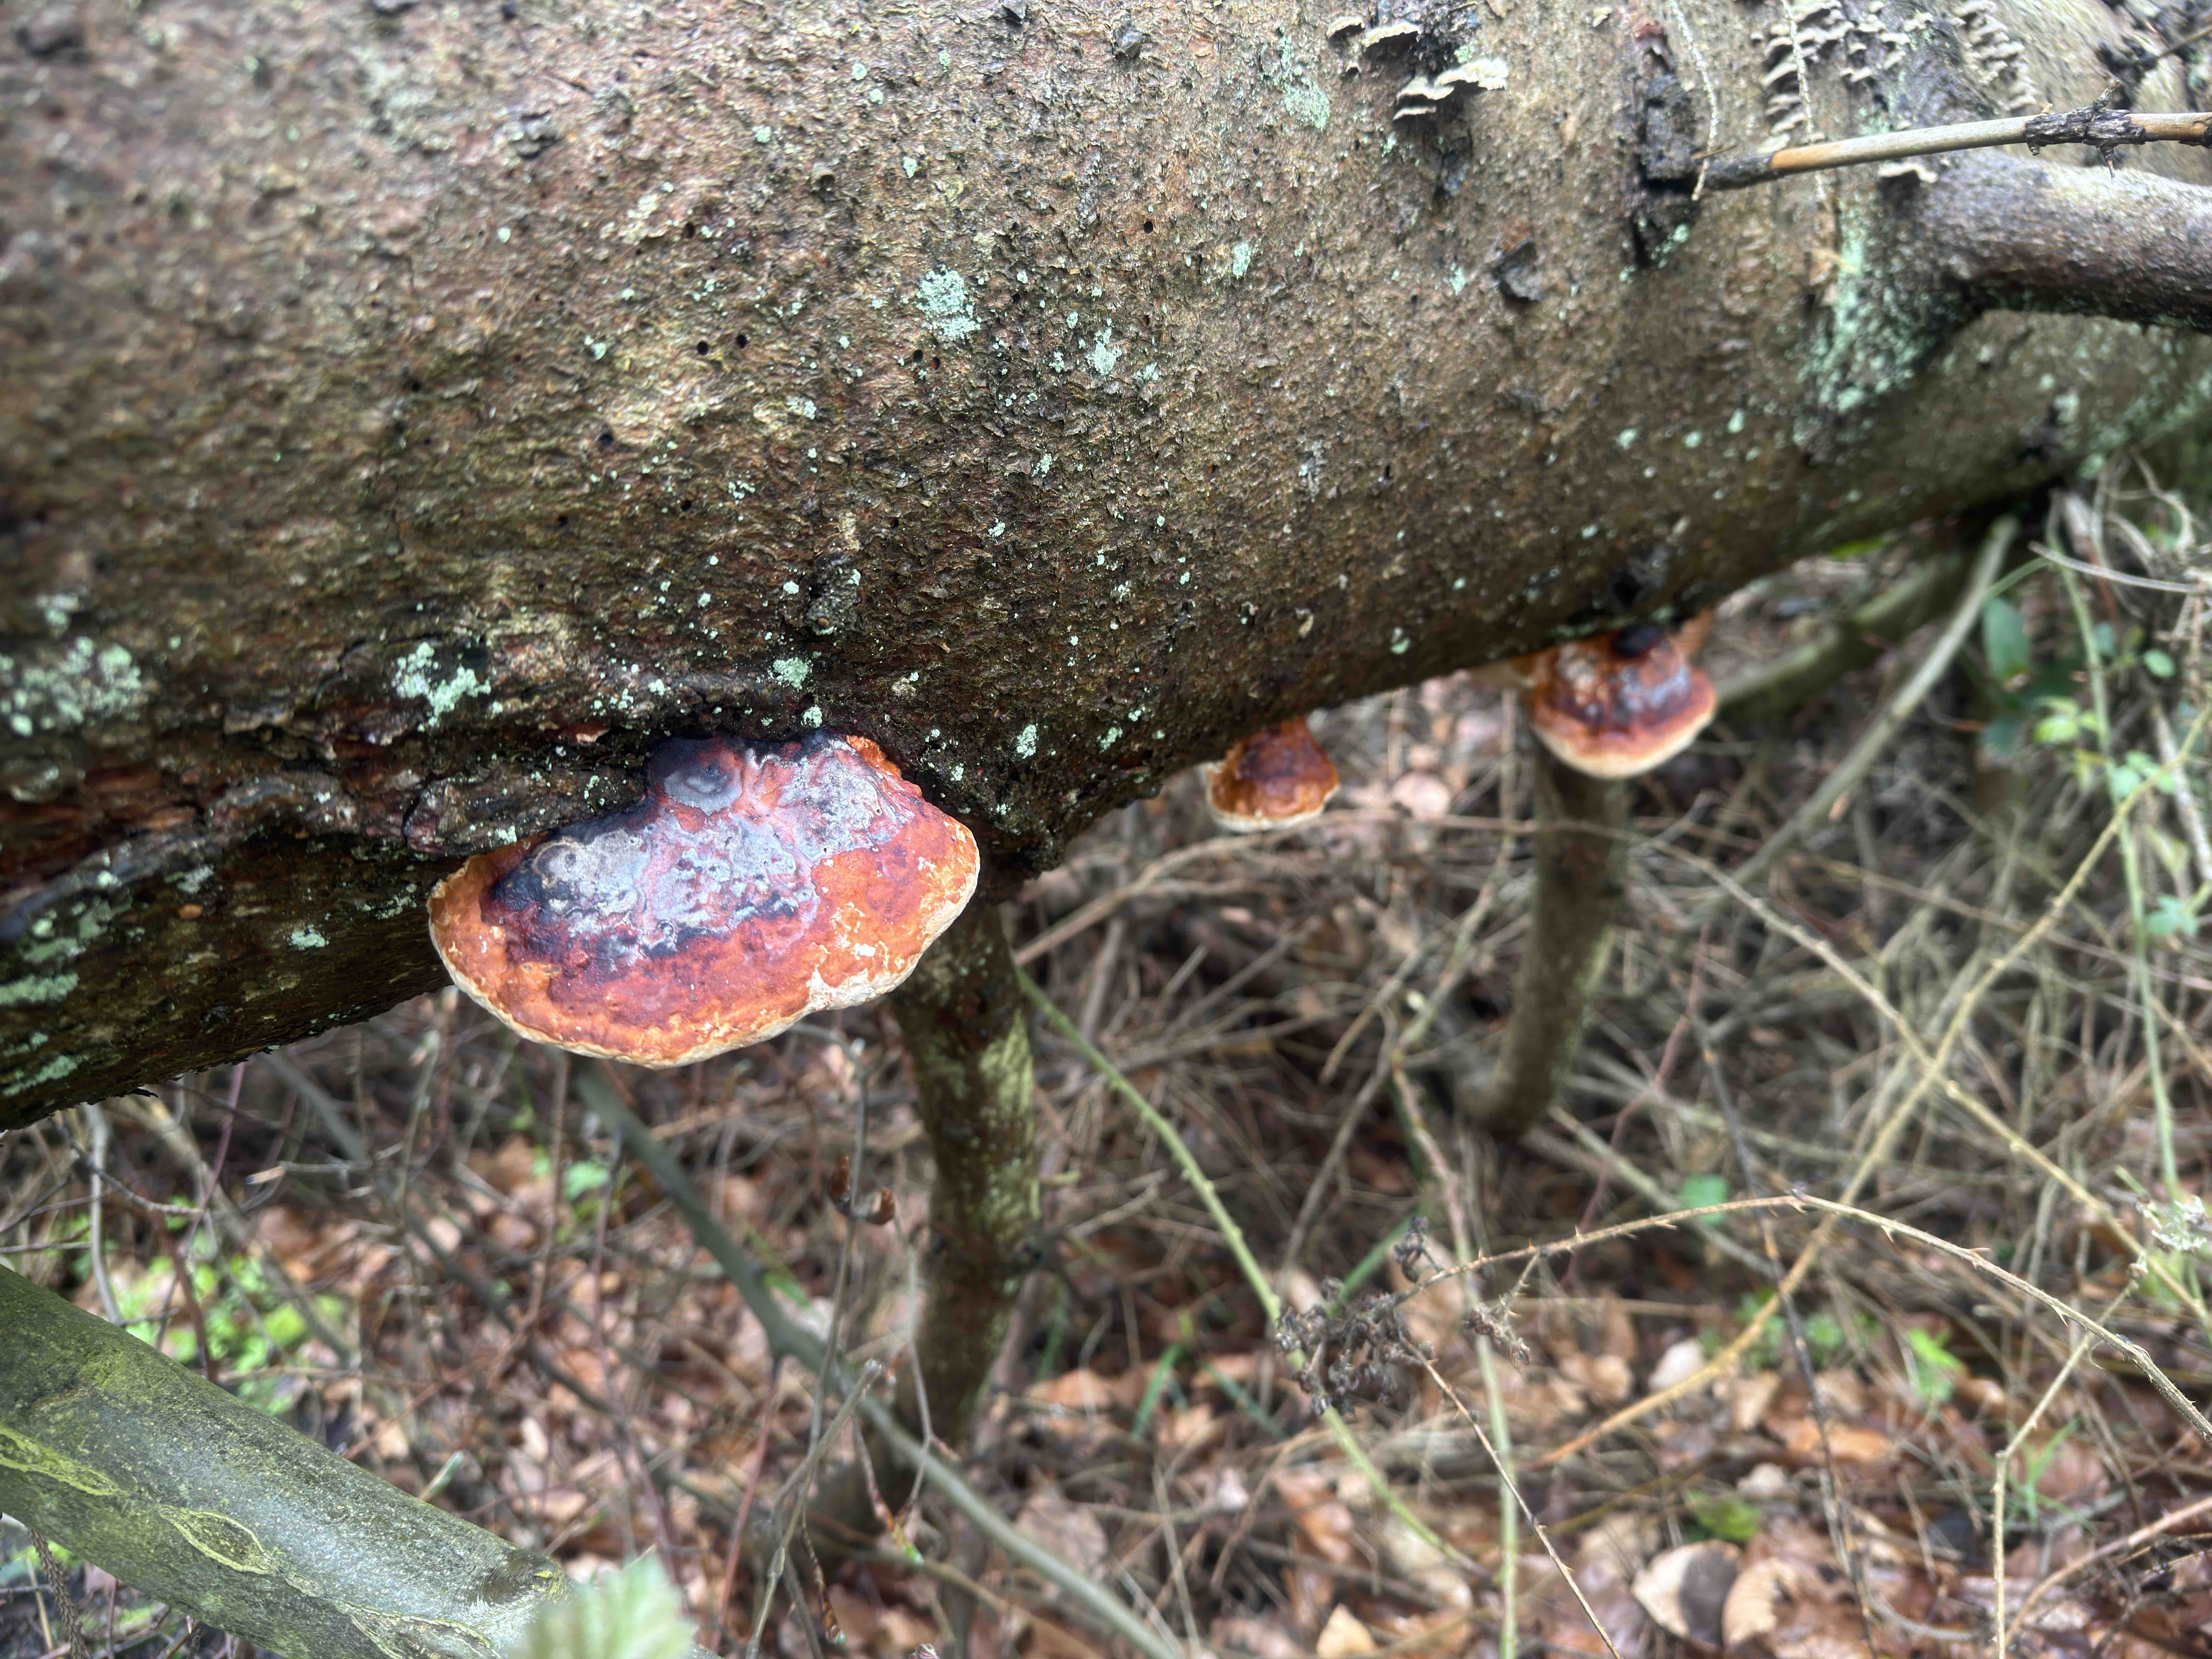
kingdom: Fungi
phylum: Basidiomycota
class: Agaricomycetes
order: Polyporales
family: Fomitopsidaceae
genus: Fomitopsis
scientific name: Fomitopsis pinicola
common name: randbæltet hovporesvamp
